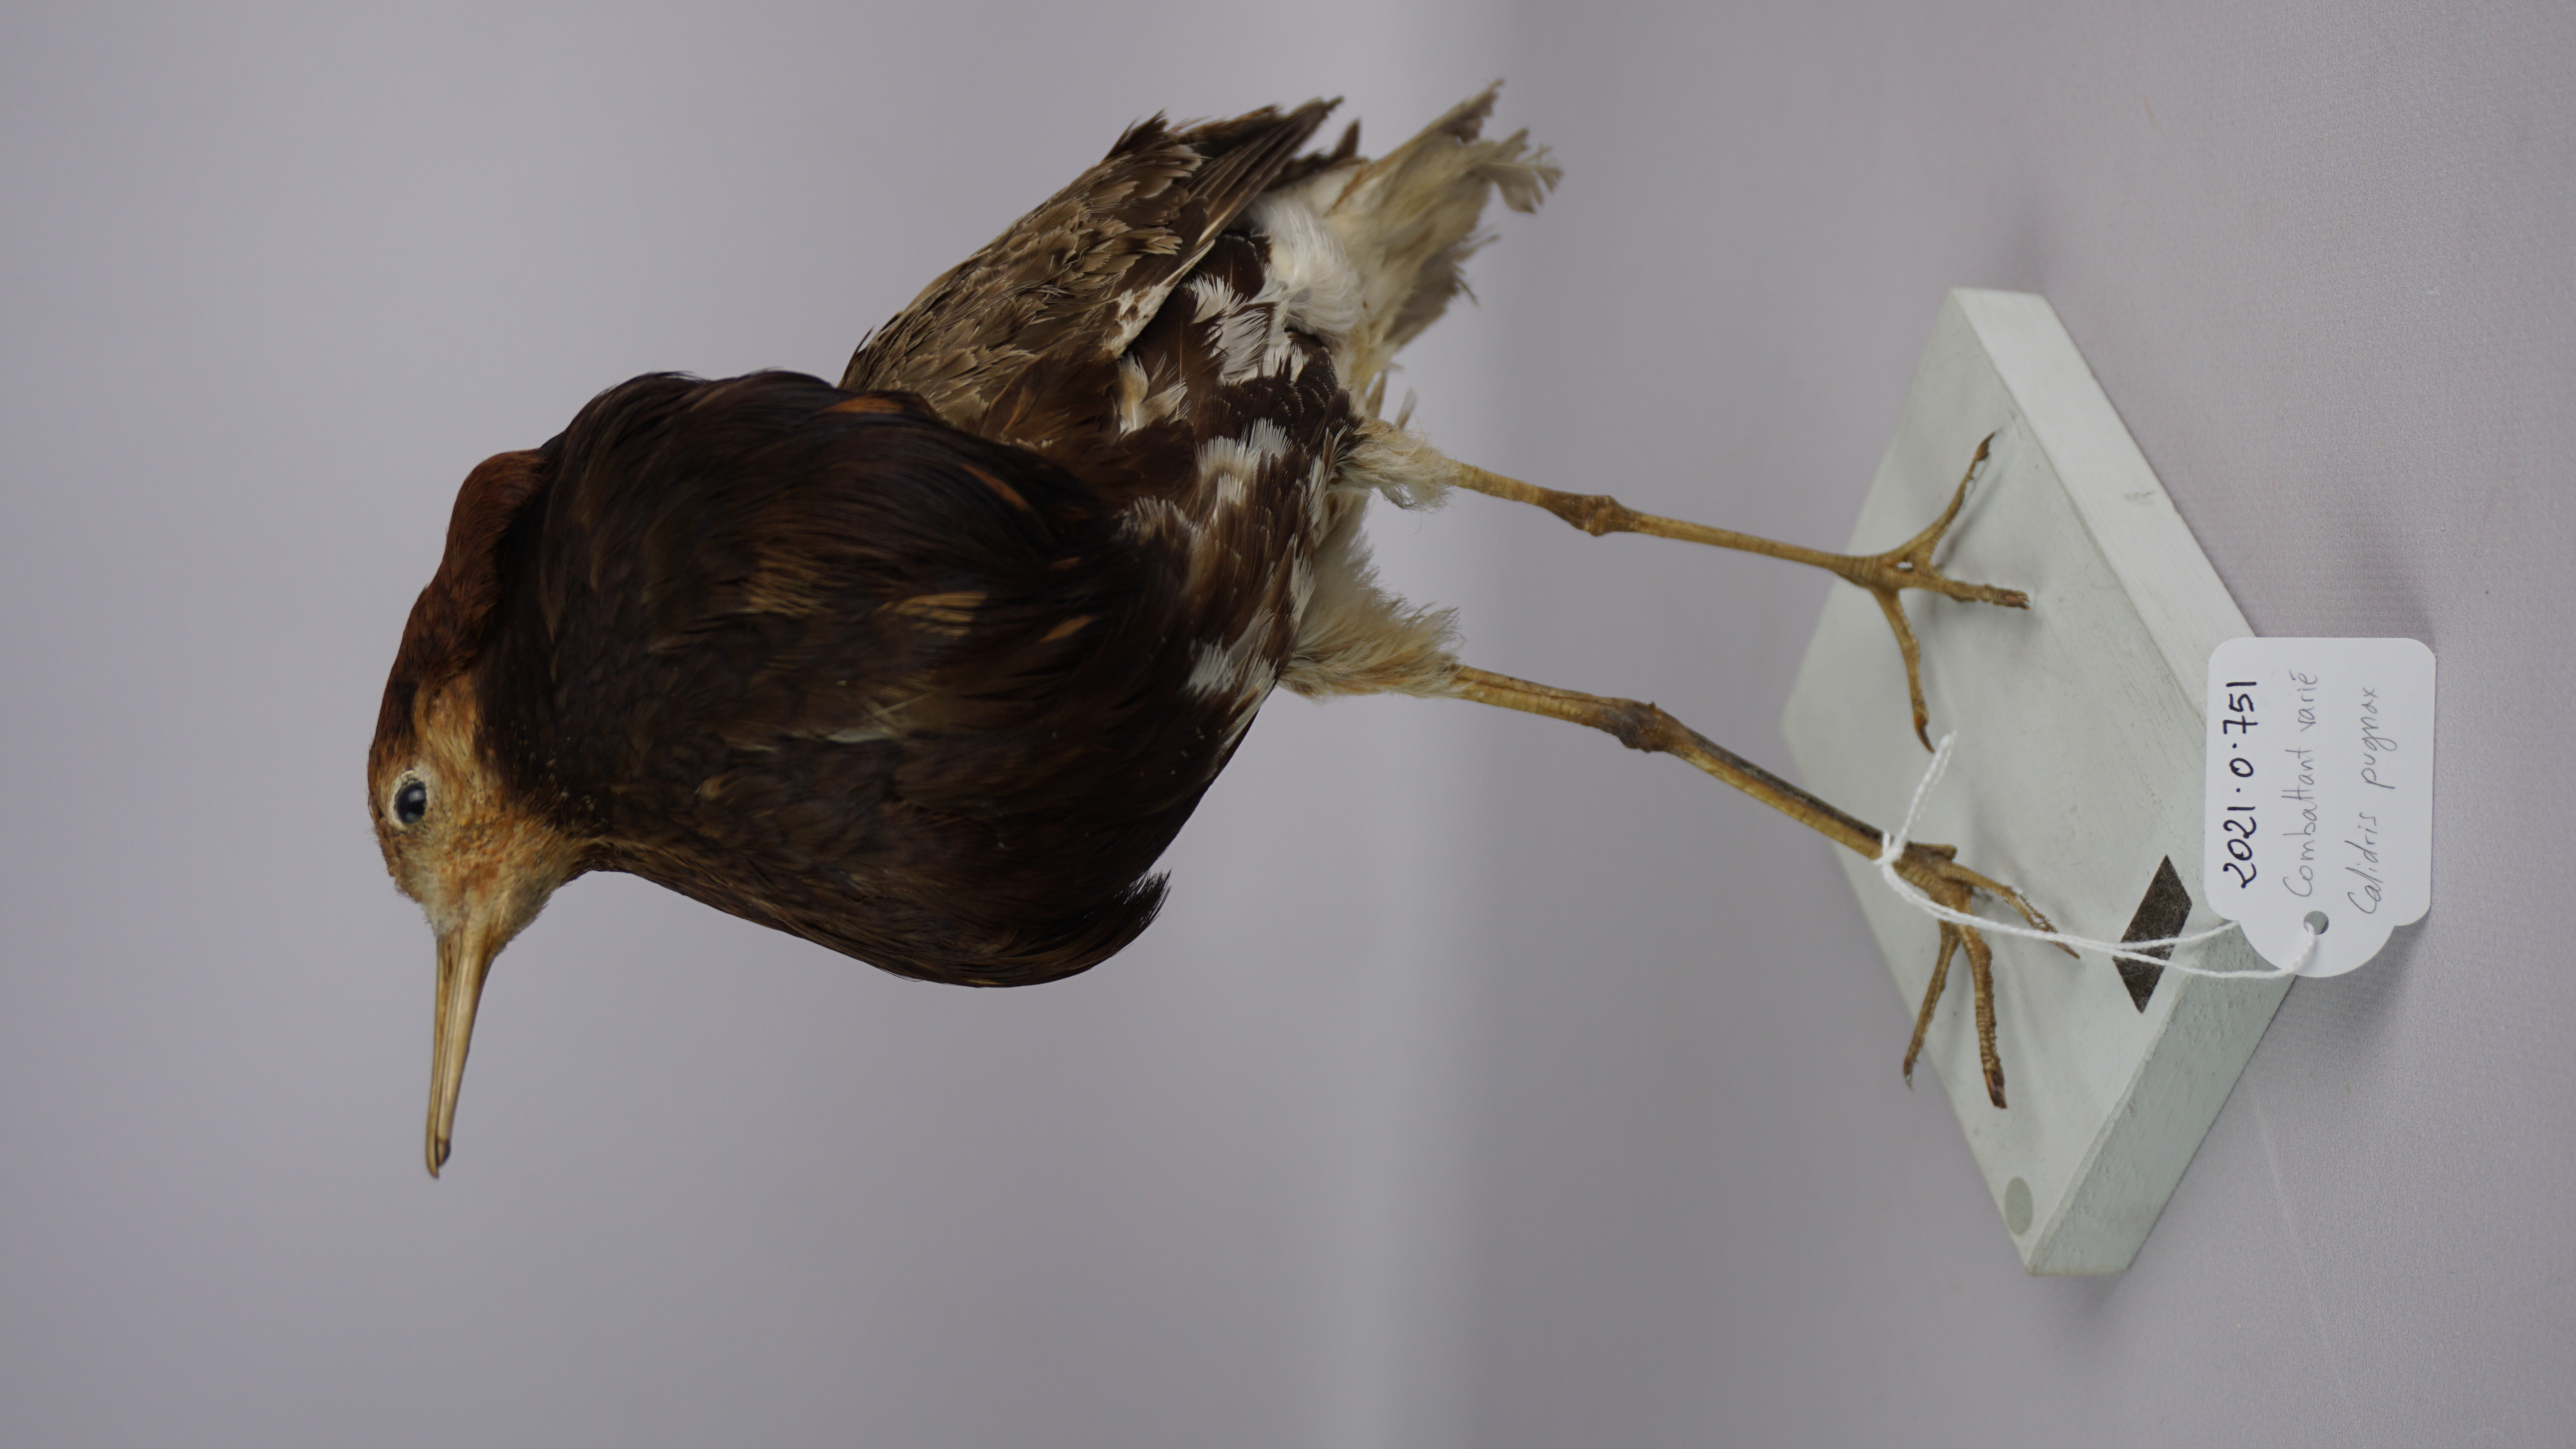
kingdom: Animalia
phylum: Chordata
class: Aves
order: Charadriiformes
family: Scolopacidae
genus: Calidris
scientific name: Calidris pugnax
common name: Ruff
